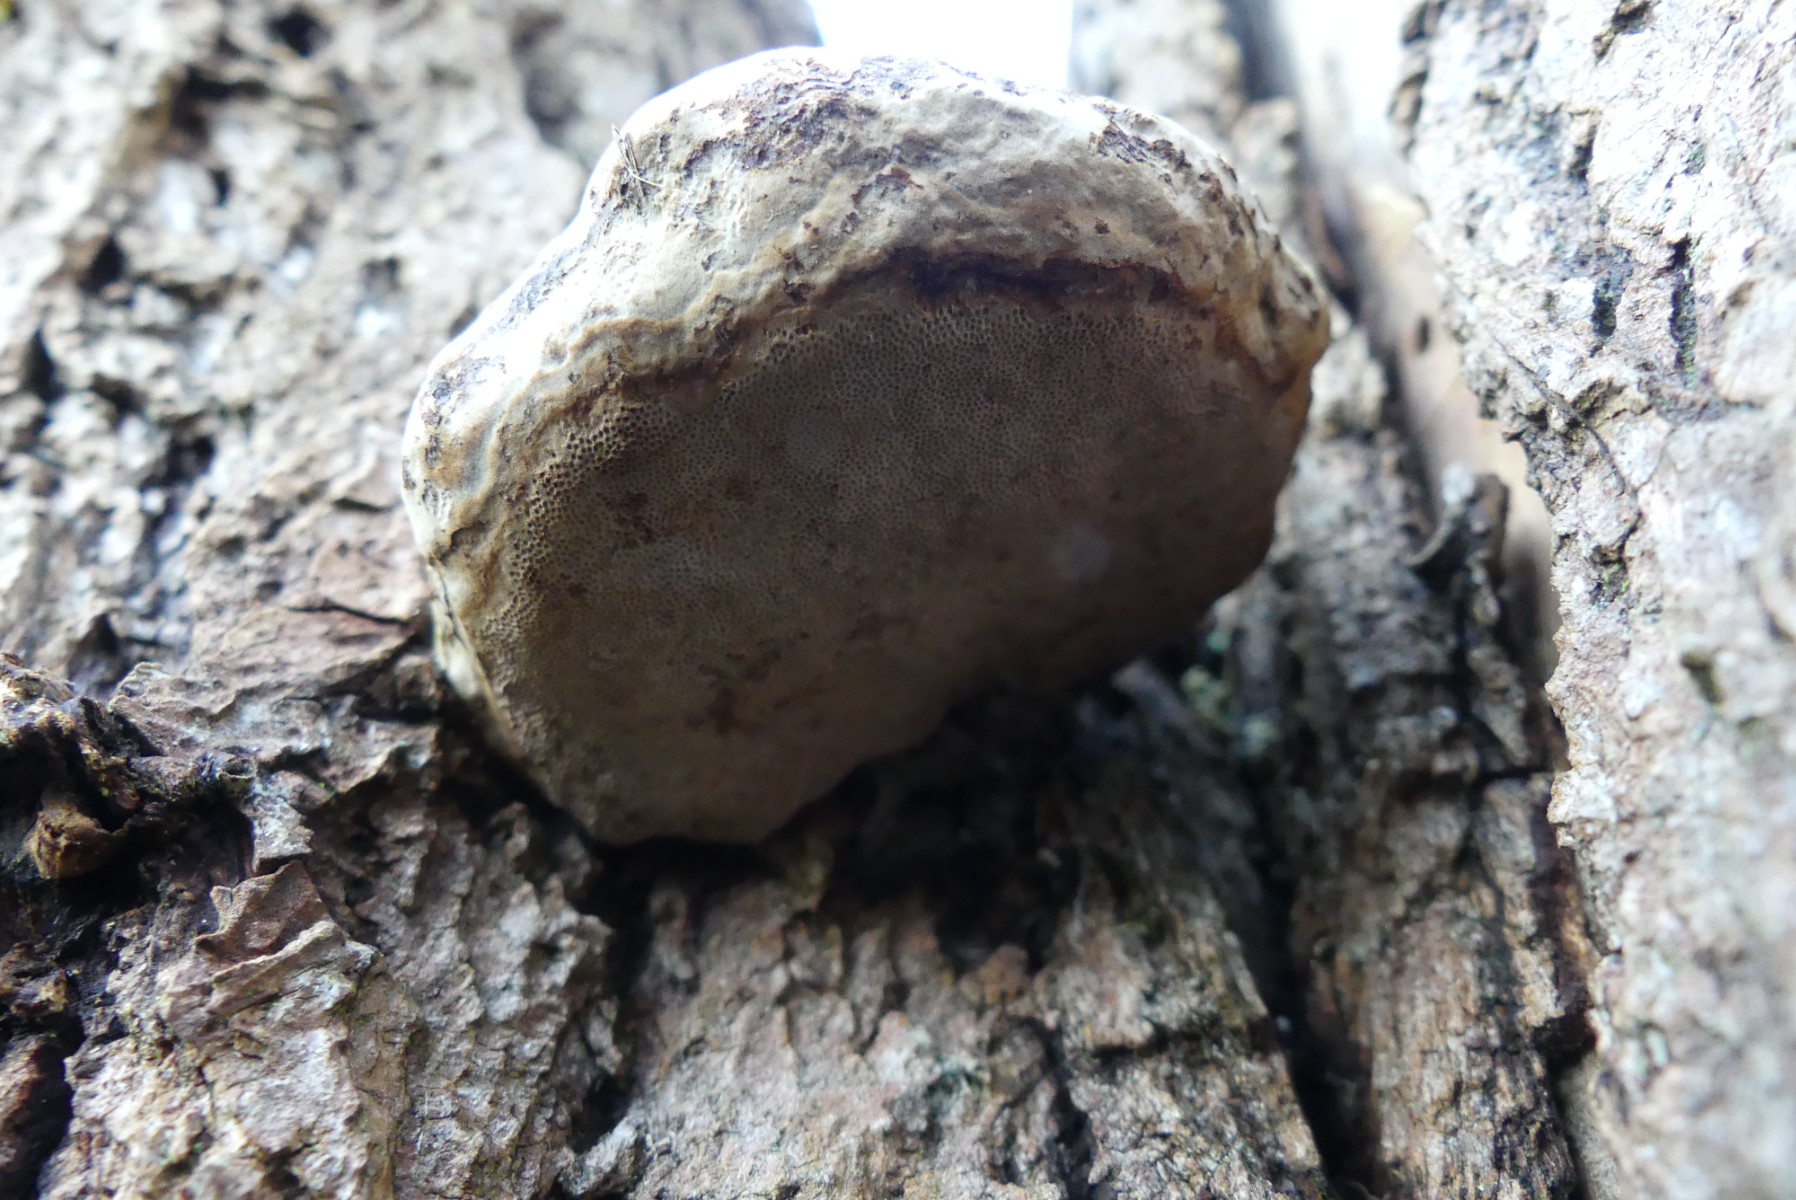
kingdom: Fungi
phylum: Basidiomycota
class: Agaricomycetes
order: Polyporales
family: Polyporaceae
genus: Fomes
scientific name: Fomes fomentarius
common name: tøndersvamp
